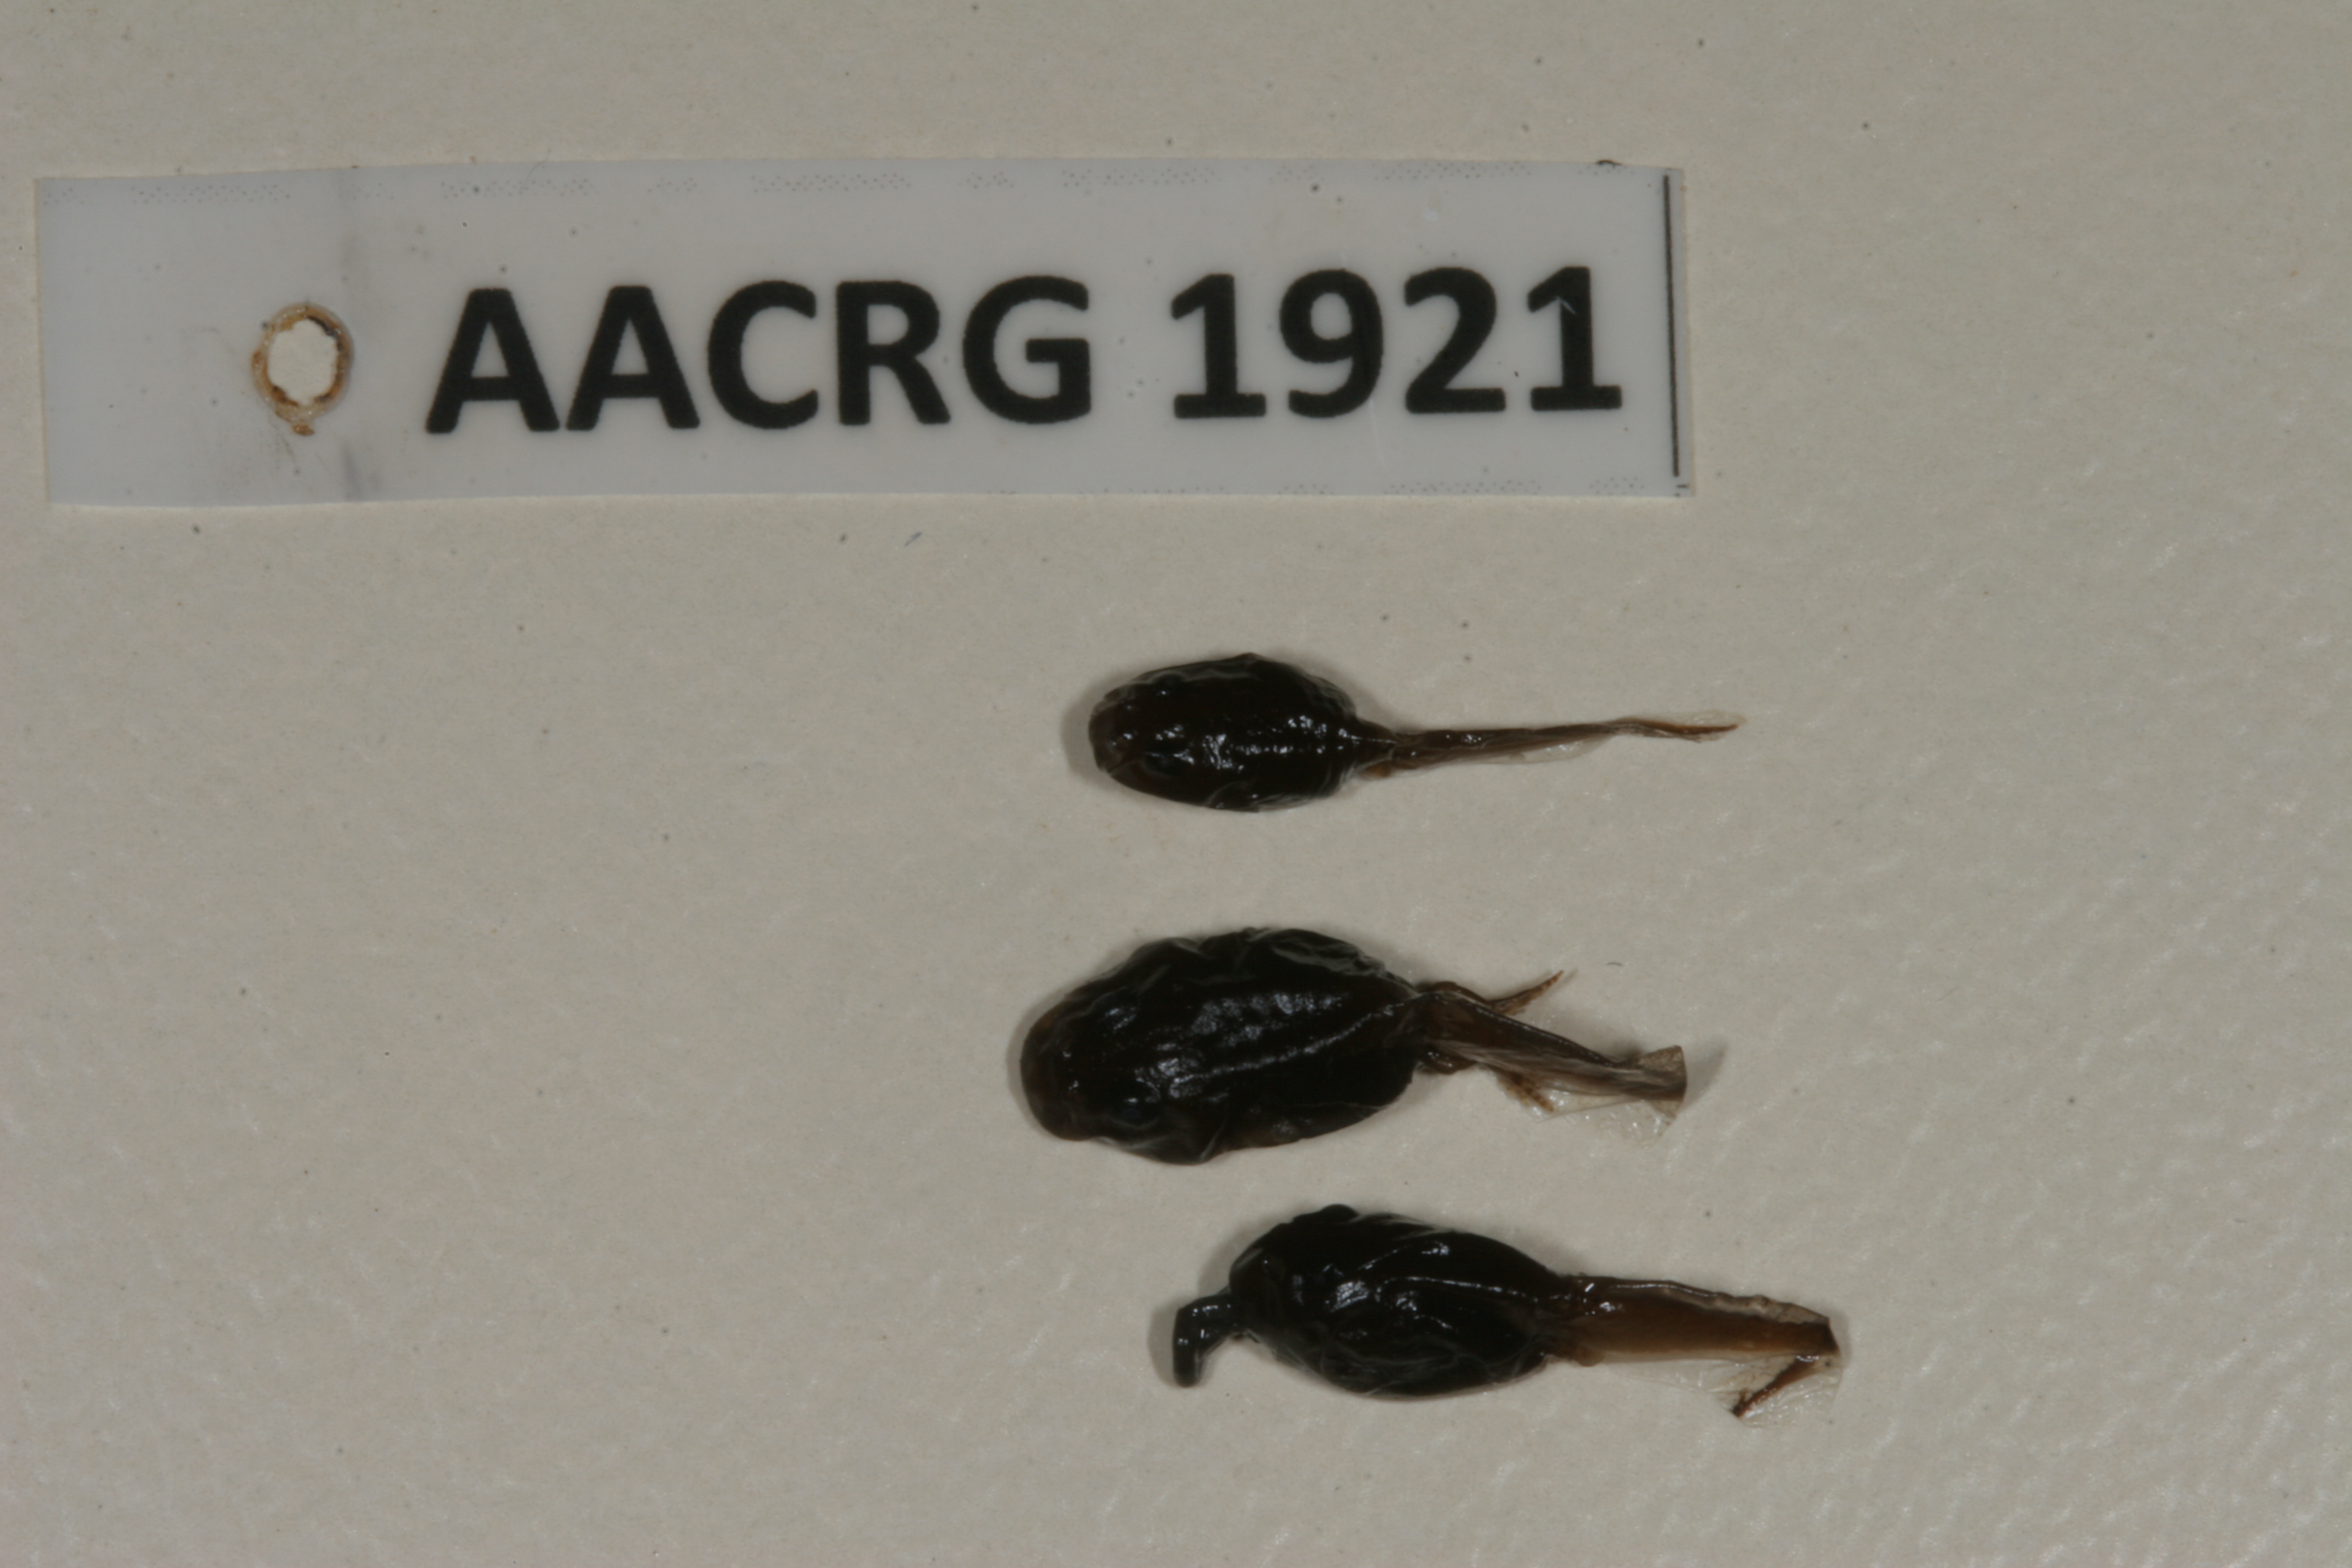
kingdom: Animalia
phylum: Chordata
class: Amphibia
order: Anura
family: Bufonidae
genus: Sclerophrys
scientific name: Sclerophrys poweri
